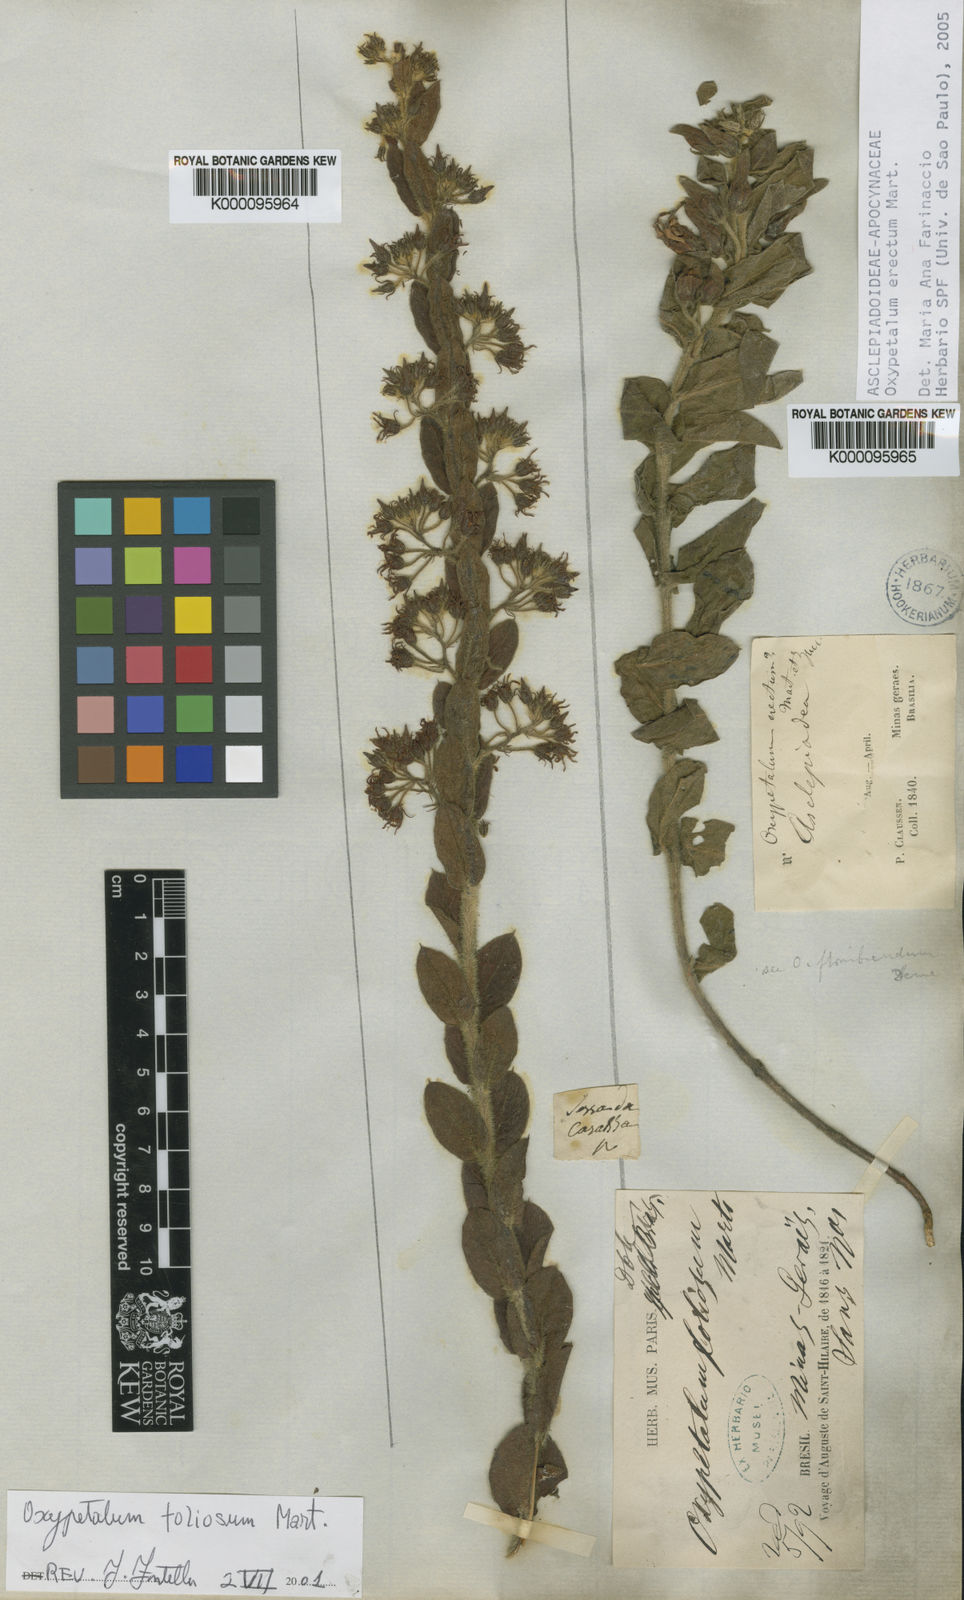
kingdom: Plantae
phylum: Tracheophyta
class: Magnoliopsida
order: Gentianales
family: Apocynaceae
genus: Oxypetalum
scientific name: Oxypetalum erectum
